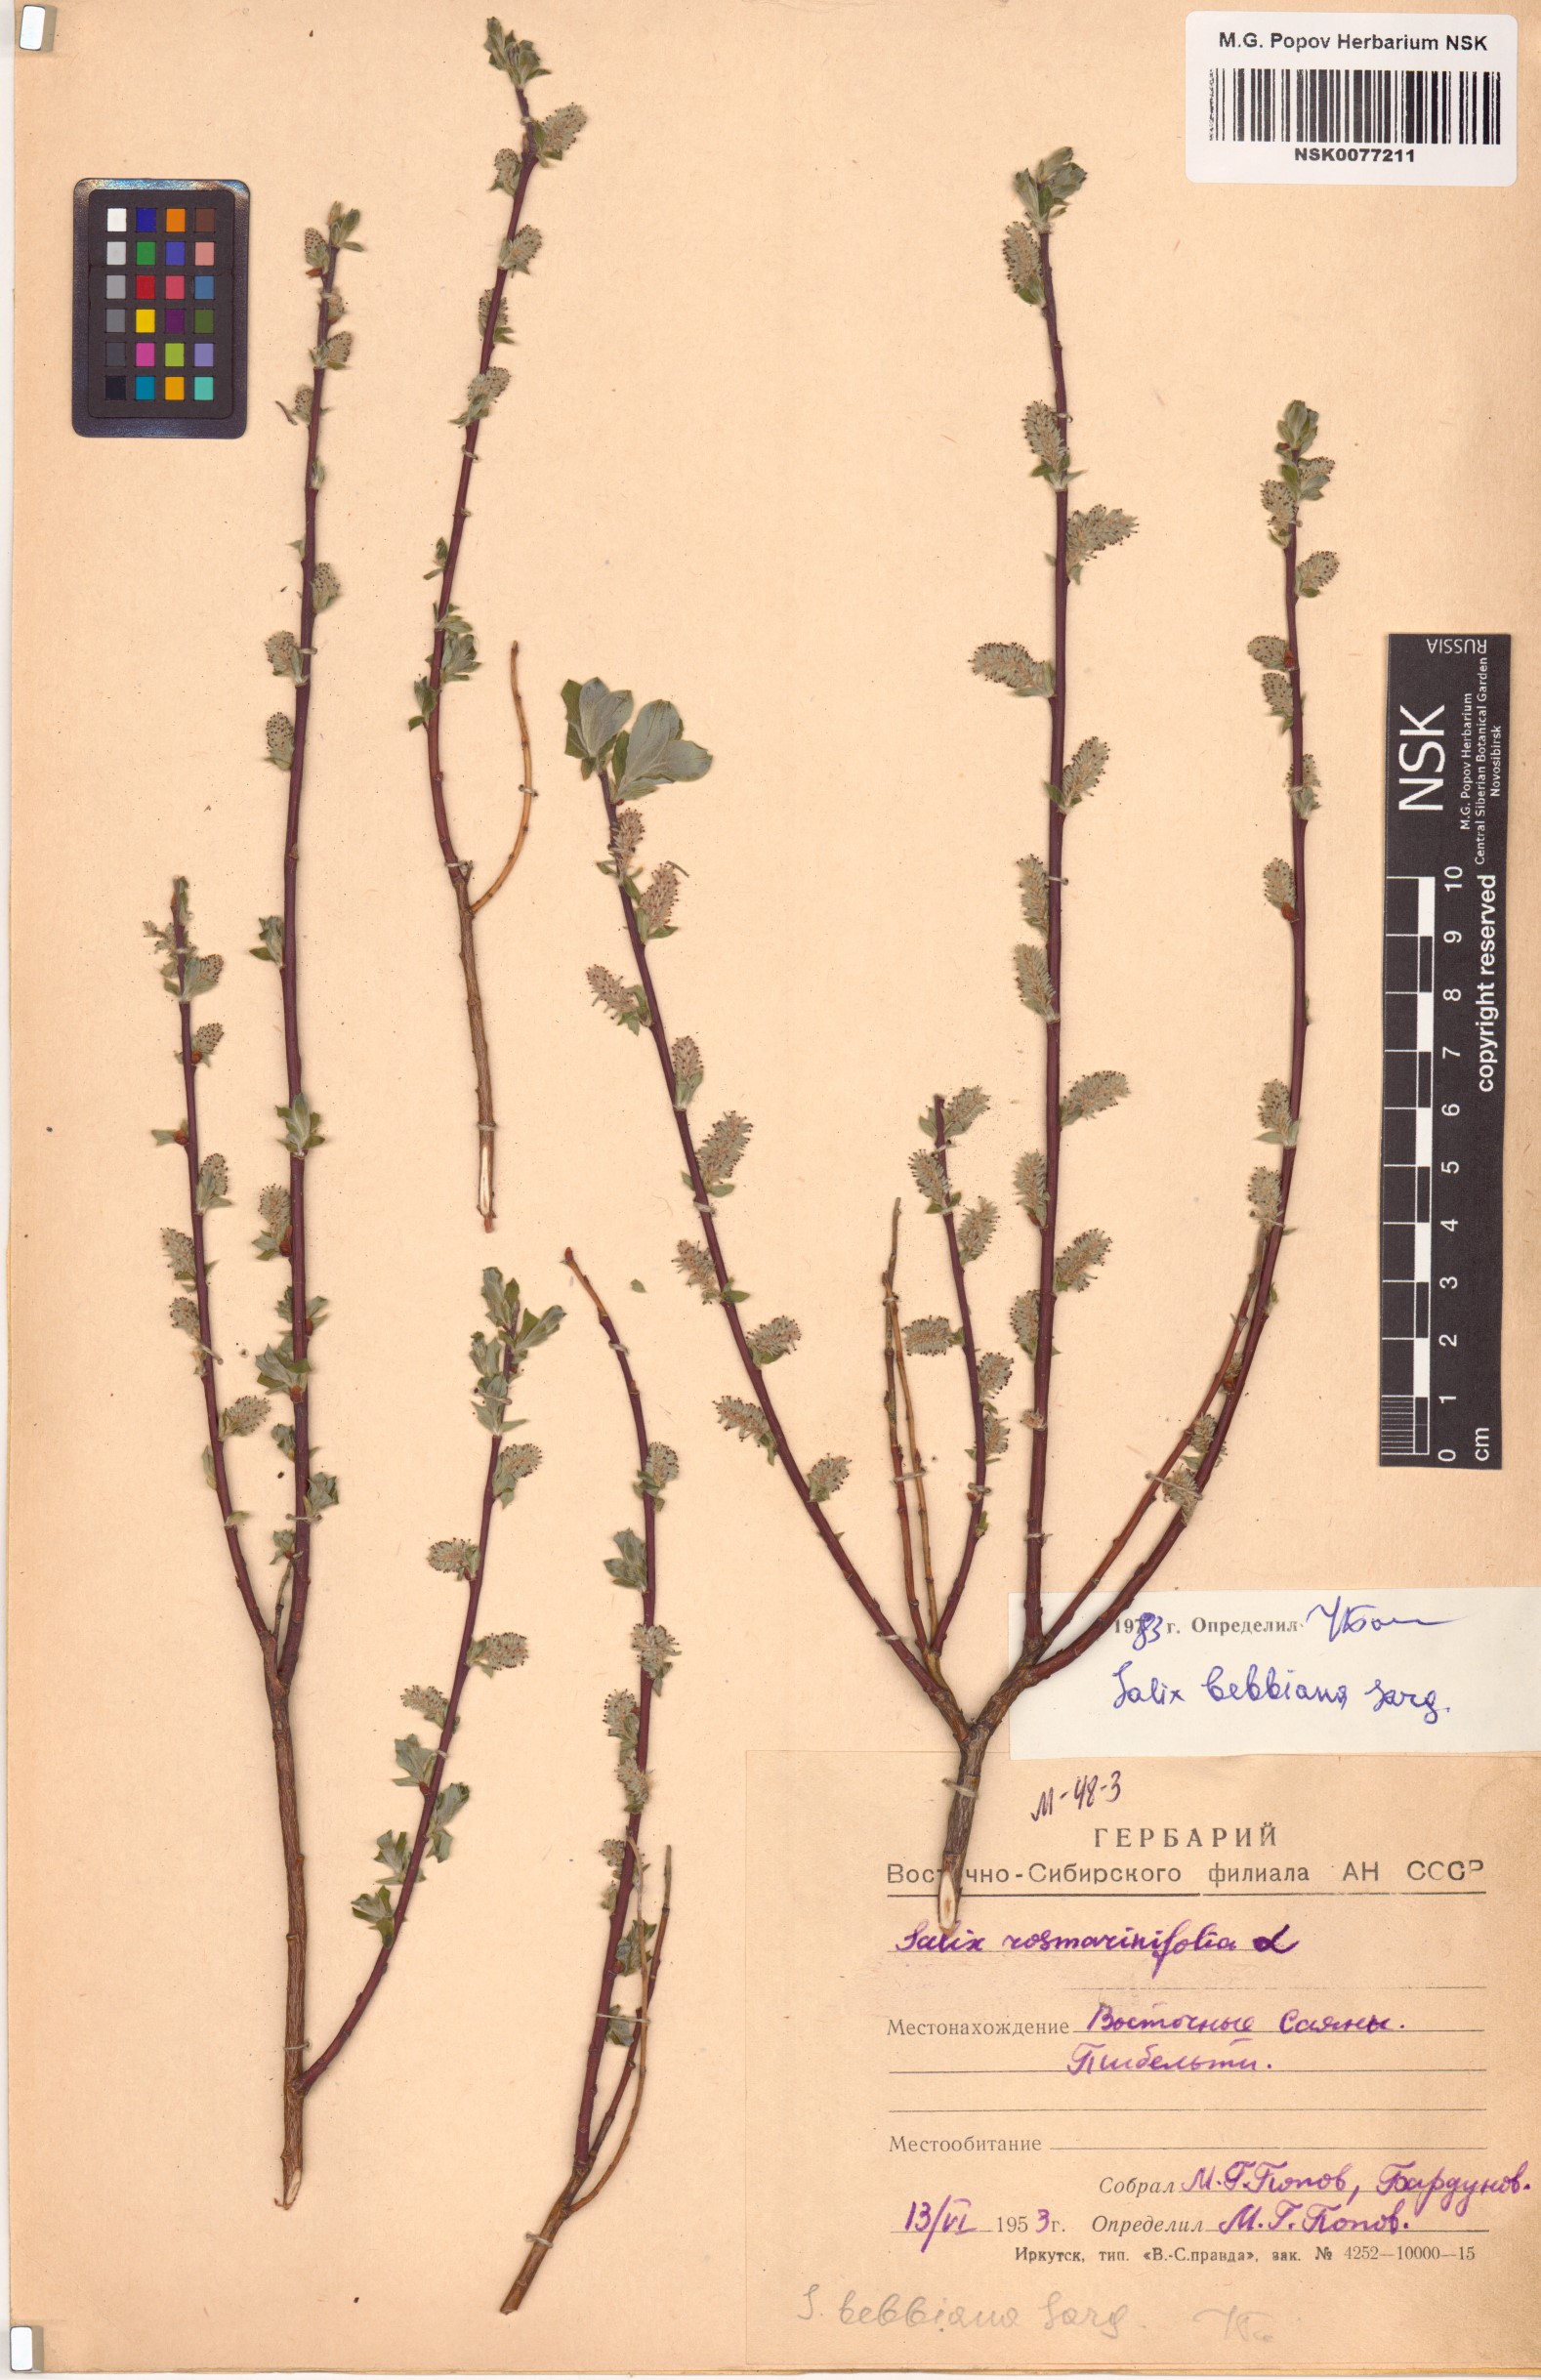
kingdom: Plantae
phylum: Tracheophyta
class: Magnoliopsida
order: Malpighiales
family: Salicaceae
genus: Salix
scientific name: Salix bebbiana
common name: Bebb's willow
